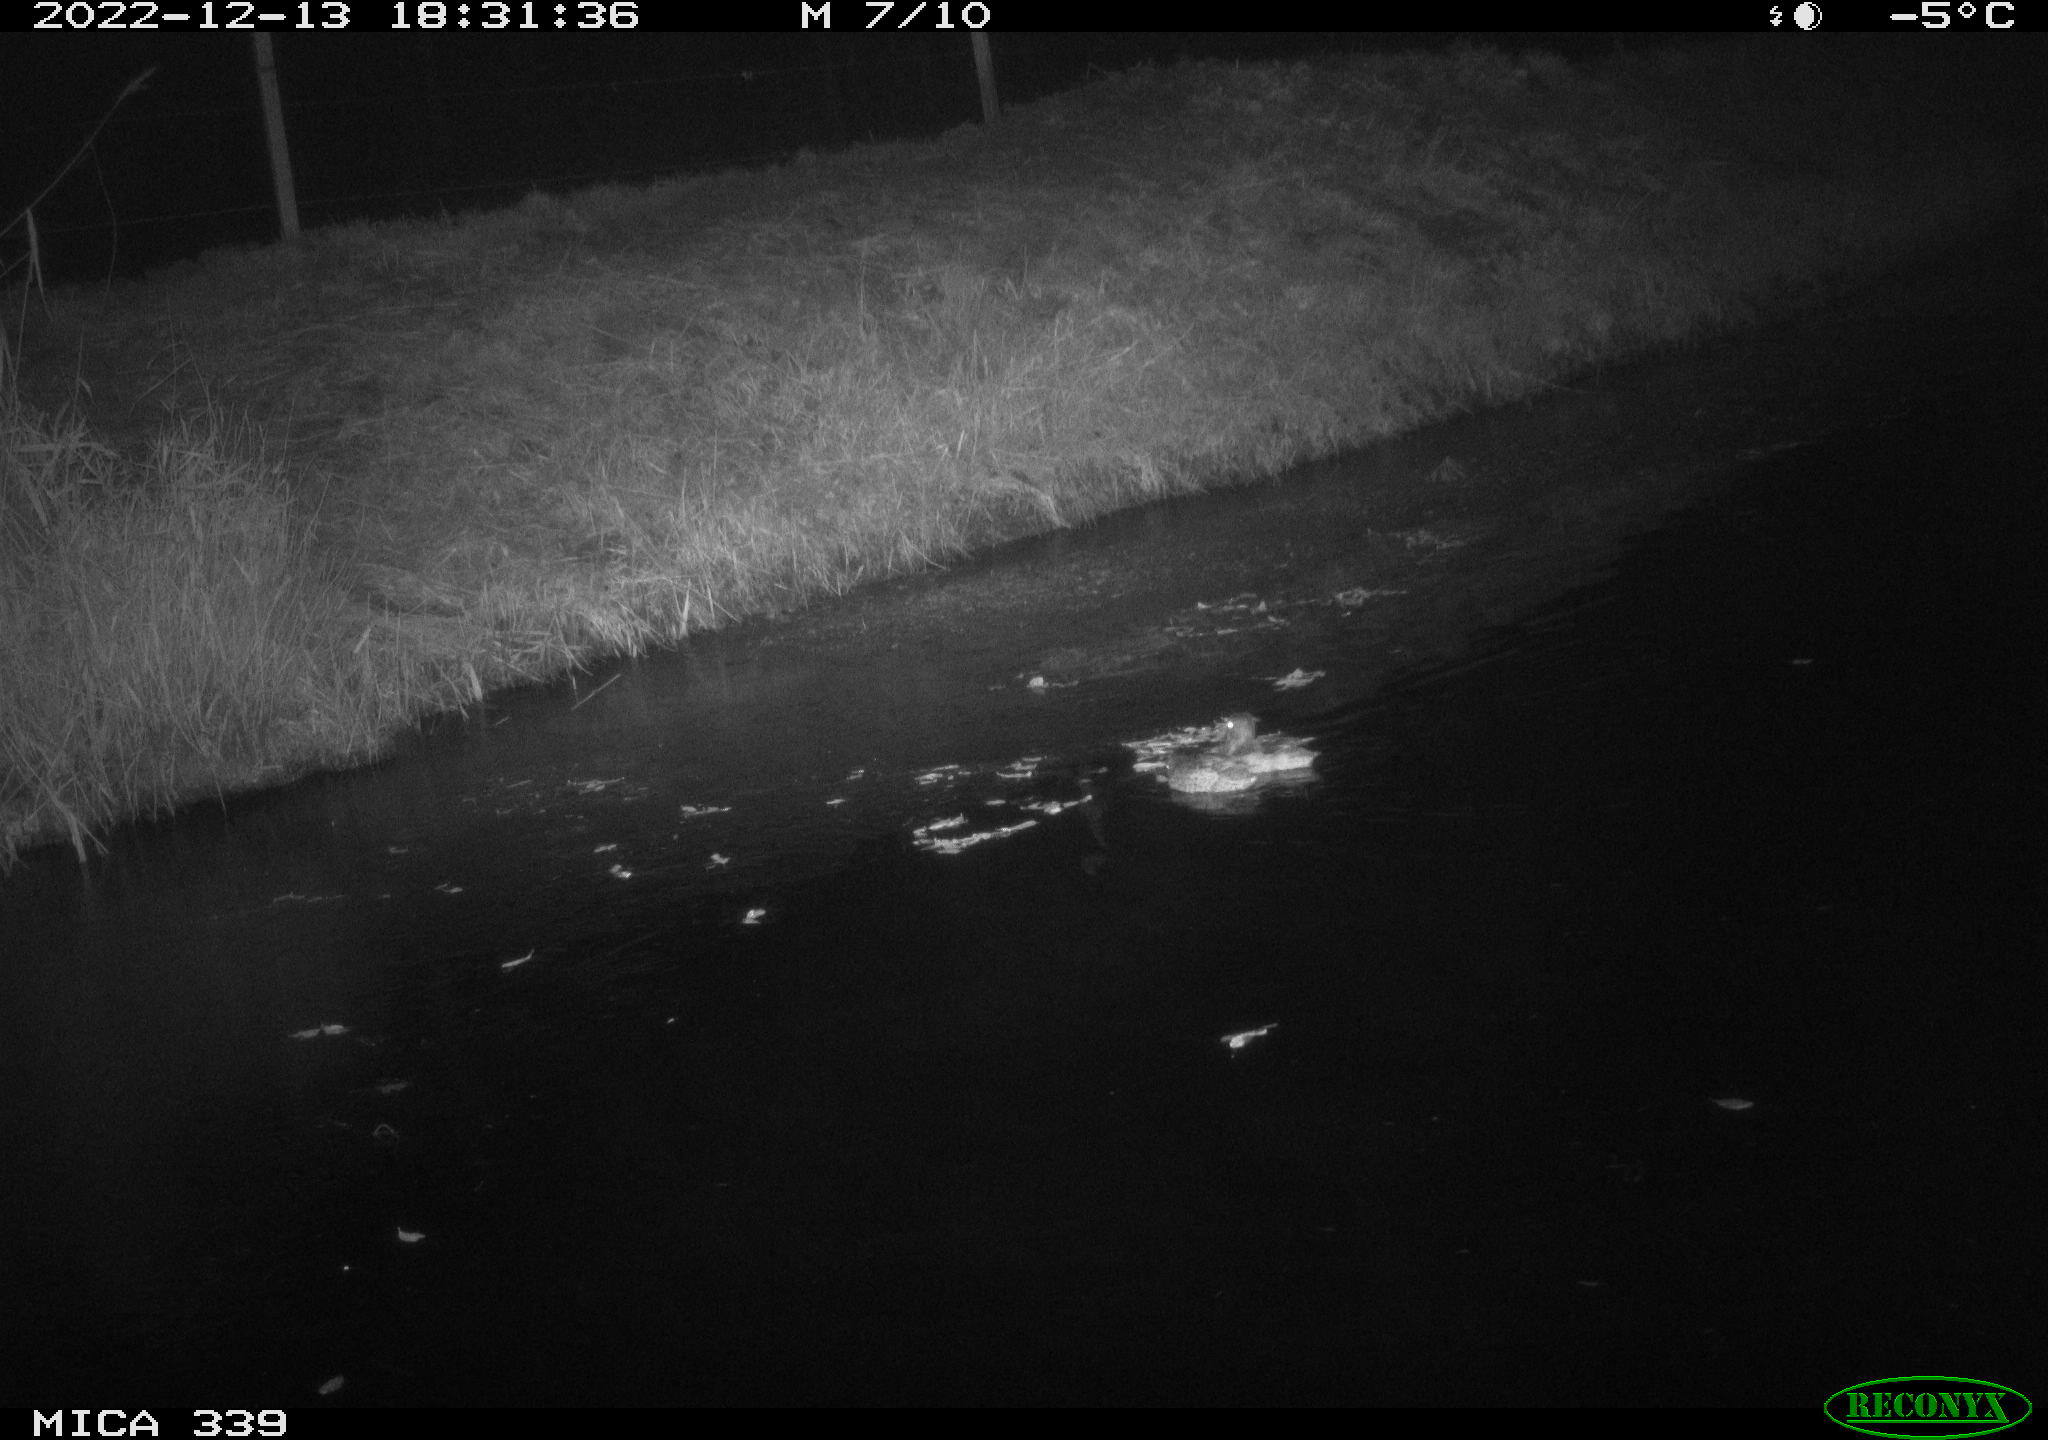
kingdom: Animalia
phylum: Chordata
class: Aves
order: Anseriformes
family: Anatidae
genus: Anas
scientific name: Anas
